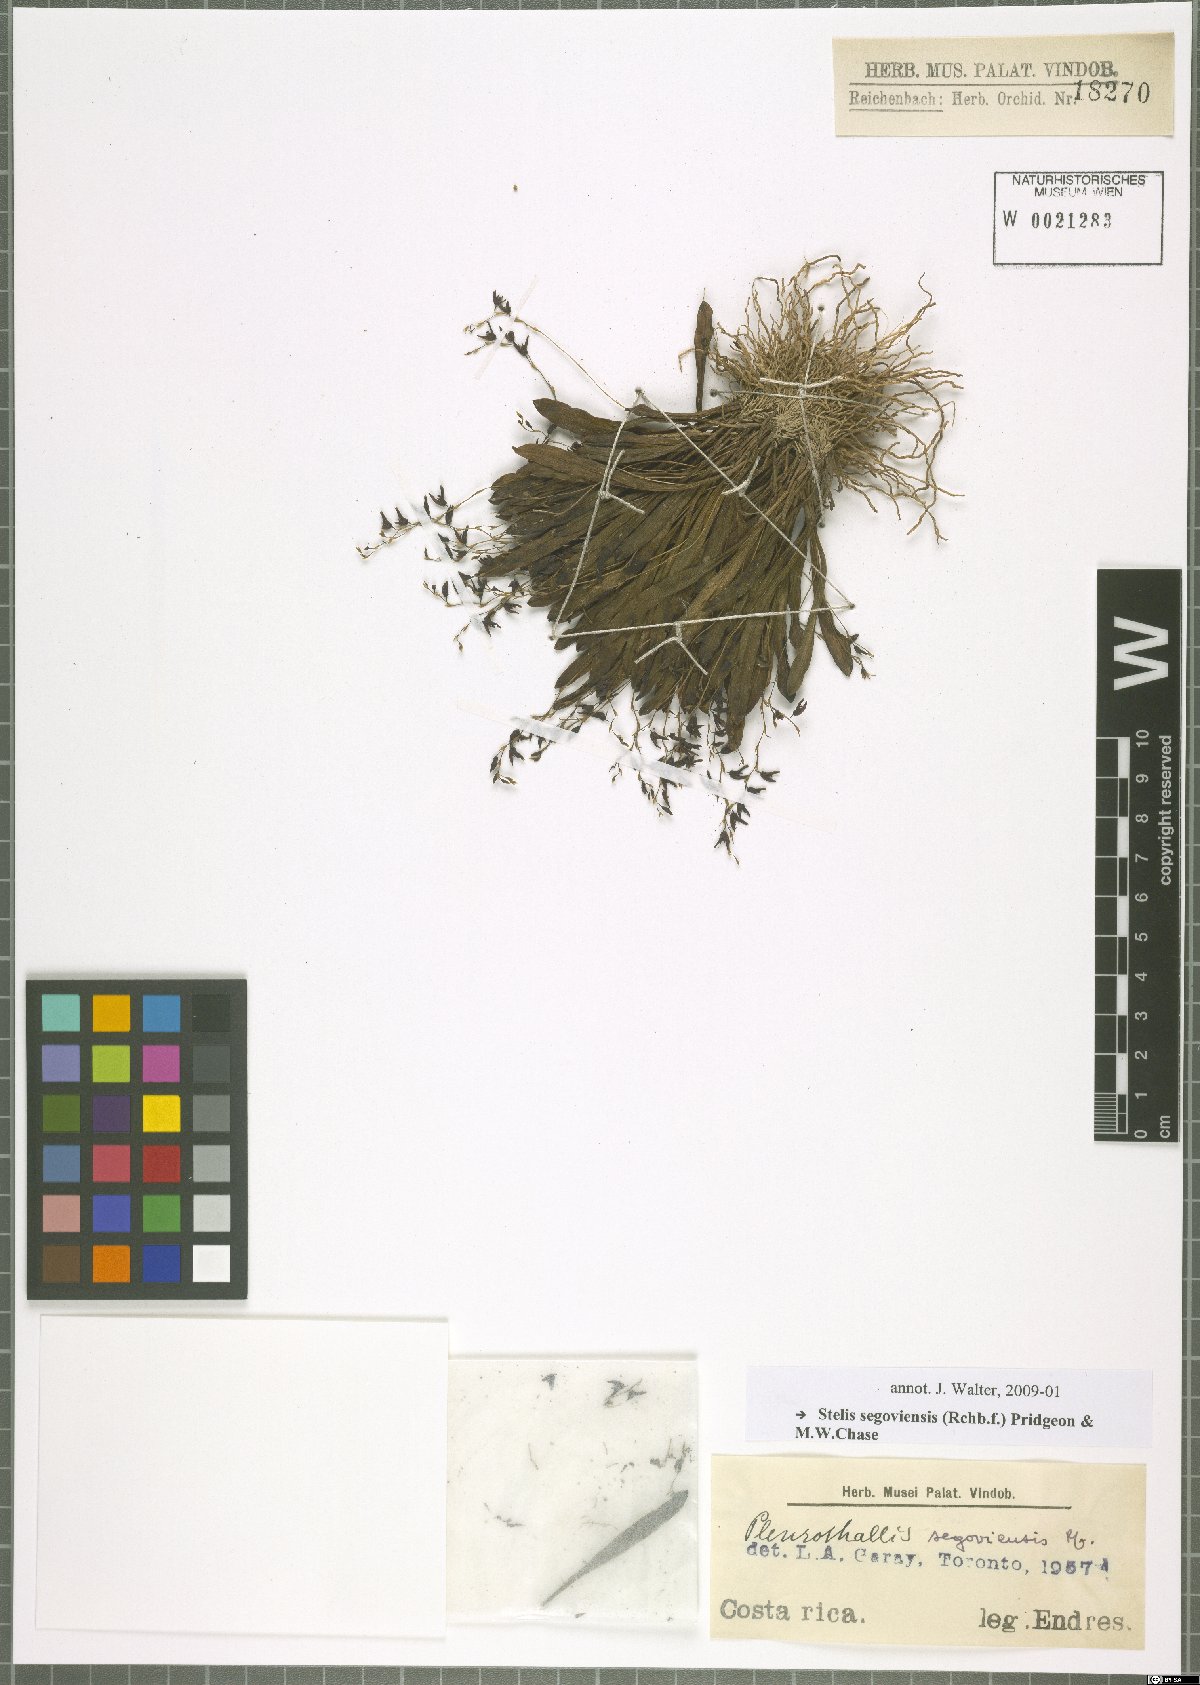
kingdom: Plantae
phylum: Tracheophyta
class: Liliopsida
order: Asparagales
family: Orchidaceae
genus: Stelis
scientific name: Stelis segoviensis
